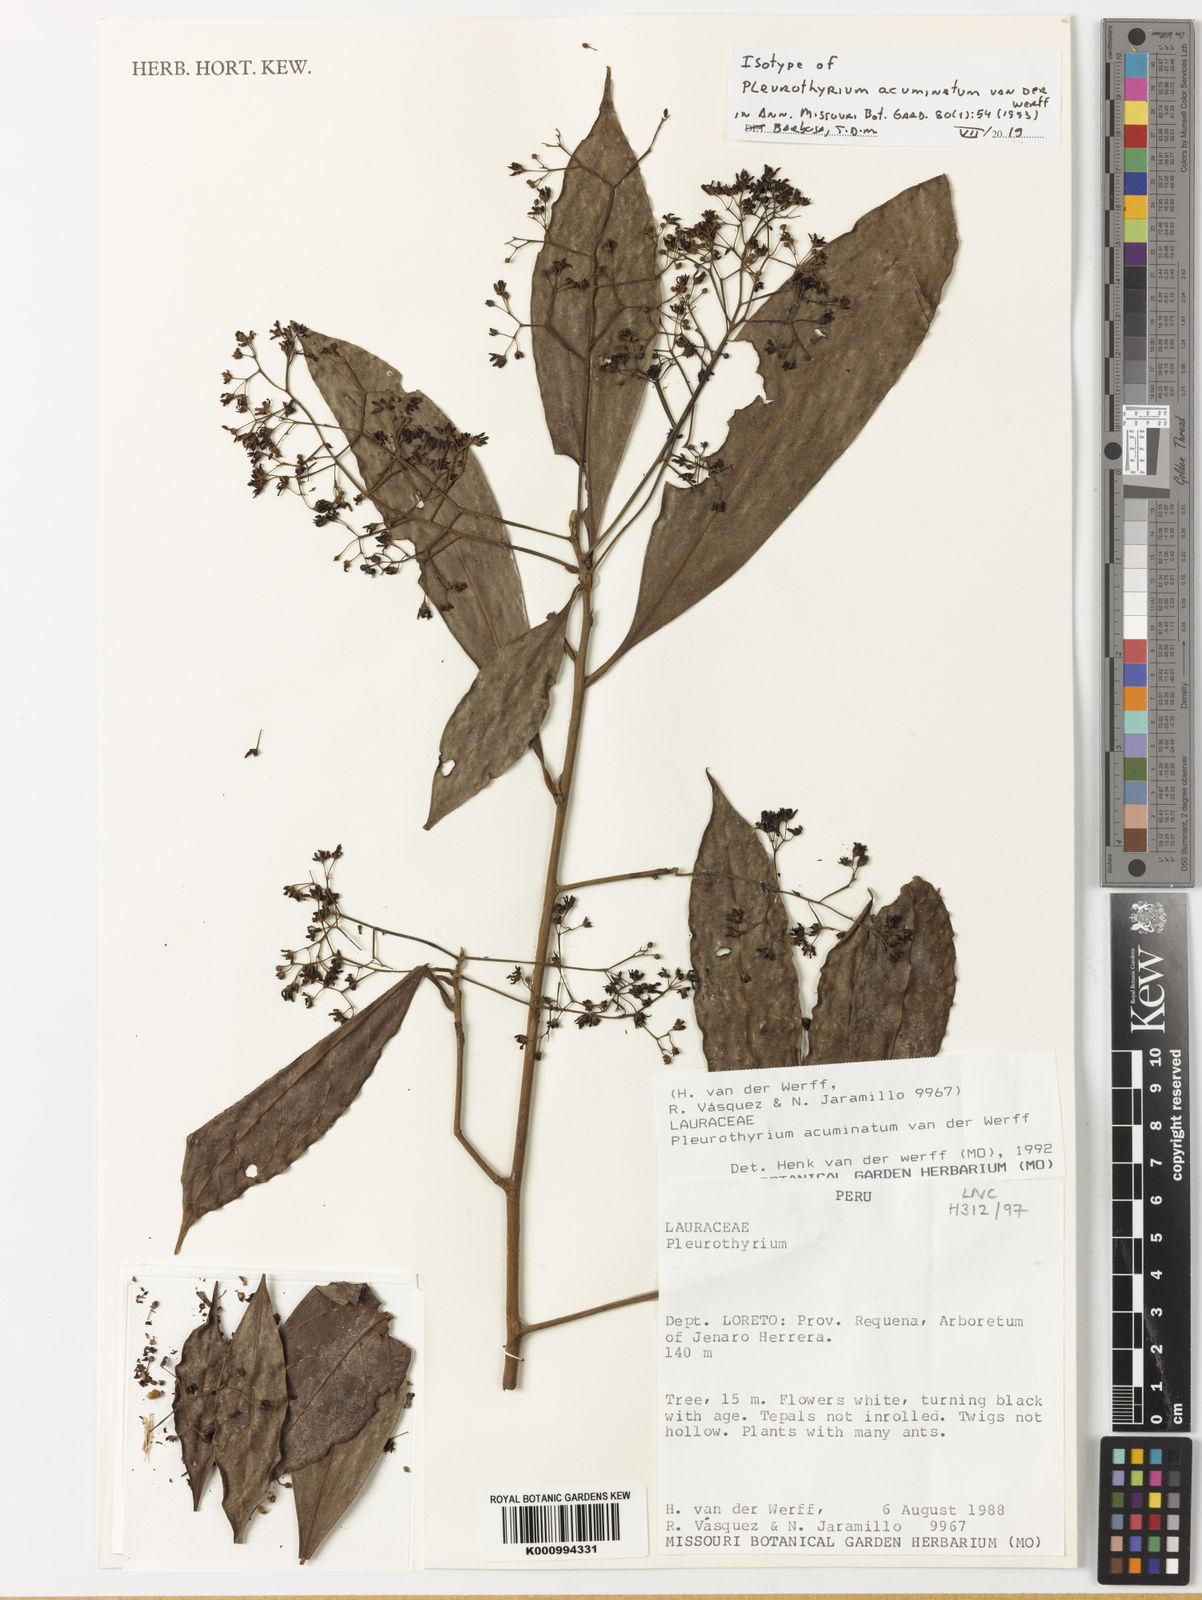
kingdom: Plantae
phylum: Tracheophyta
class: Magnoliopsida
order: Laurales
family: Lauraceae
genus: Pleurothyrium
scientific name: Pleurothyrium acuminatum
